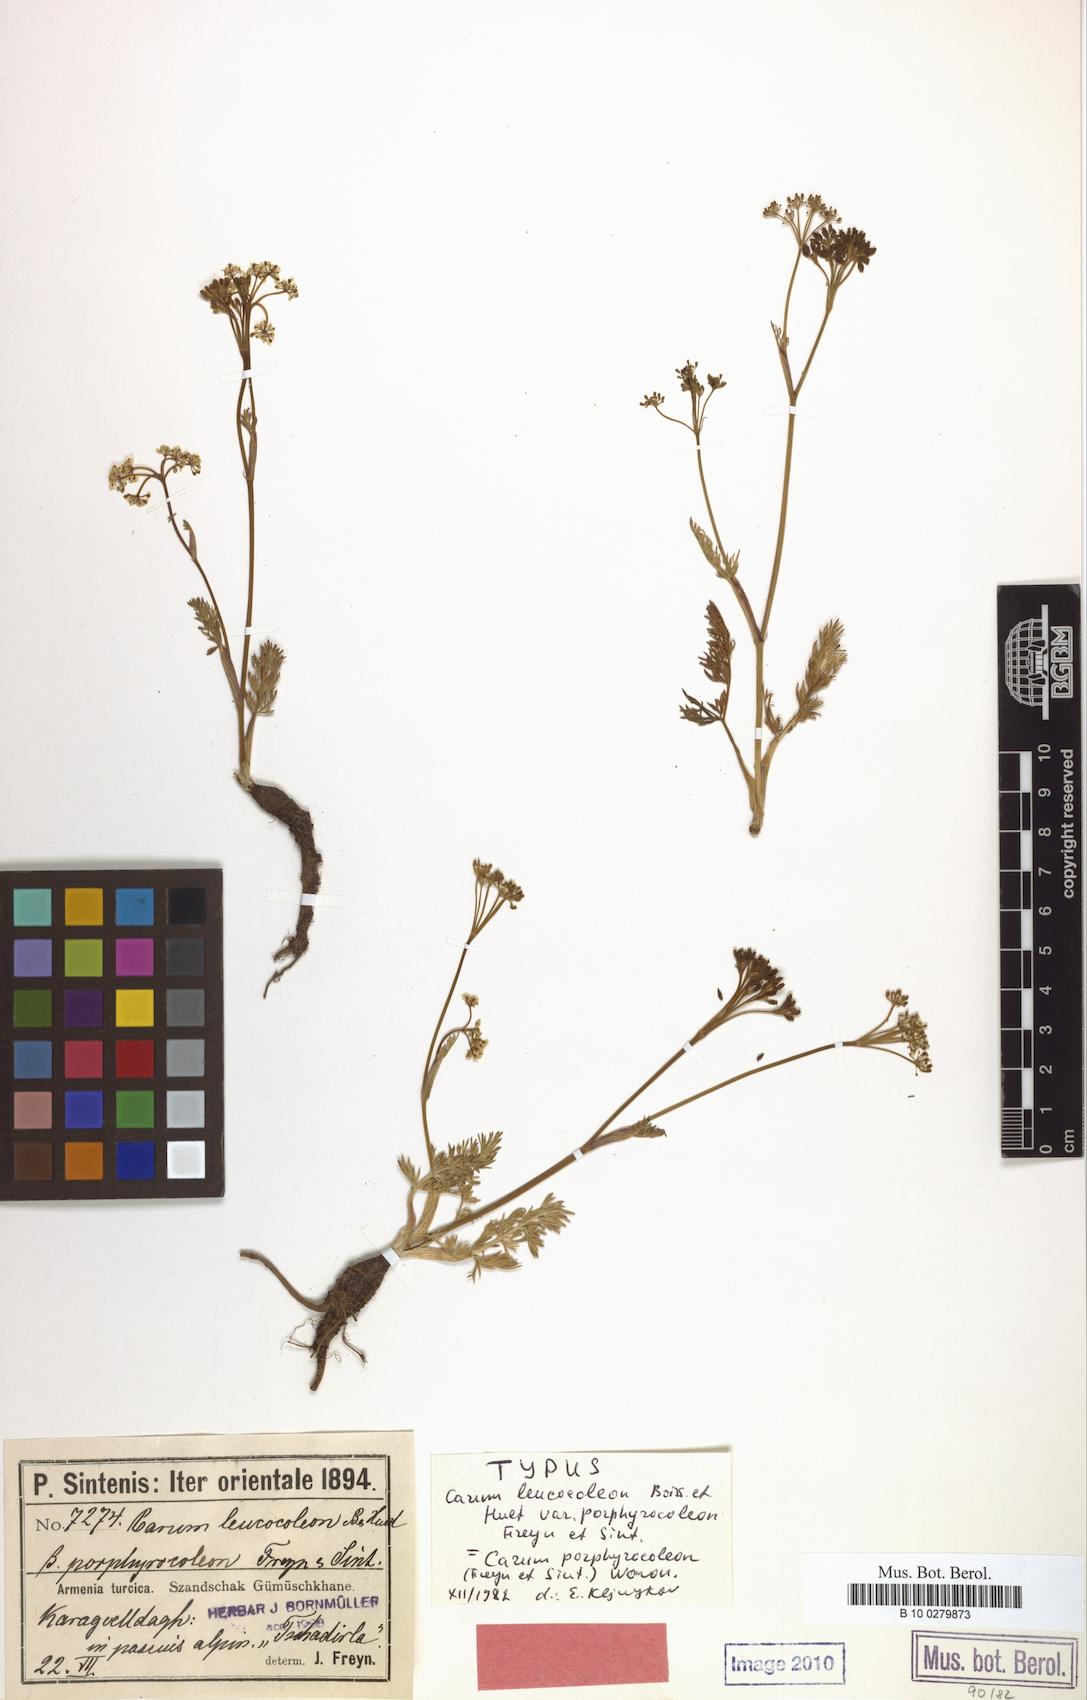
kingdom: Plantae
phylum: Tracheophyta
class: Magnoliopsida
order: Apiales
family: Apiaceae
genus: Carum
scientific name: Carum porphyrocoleon
